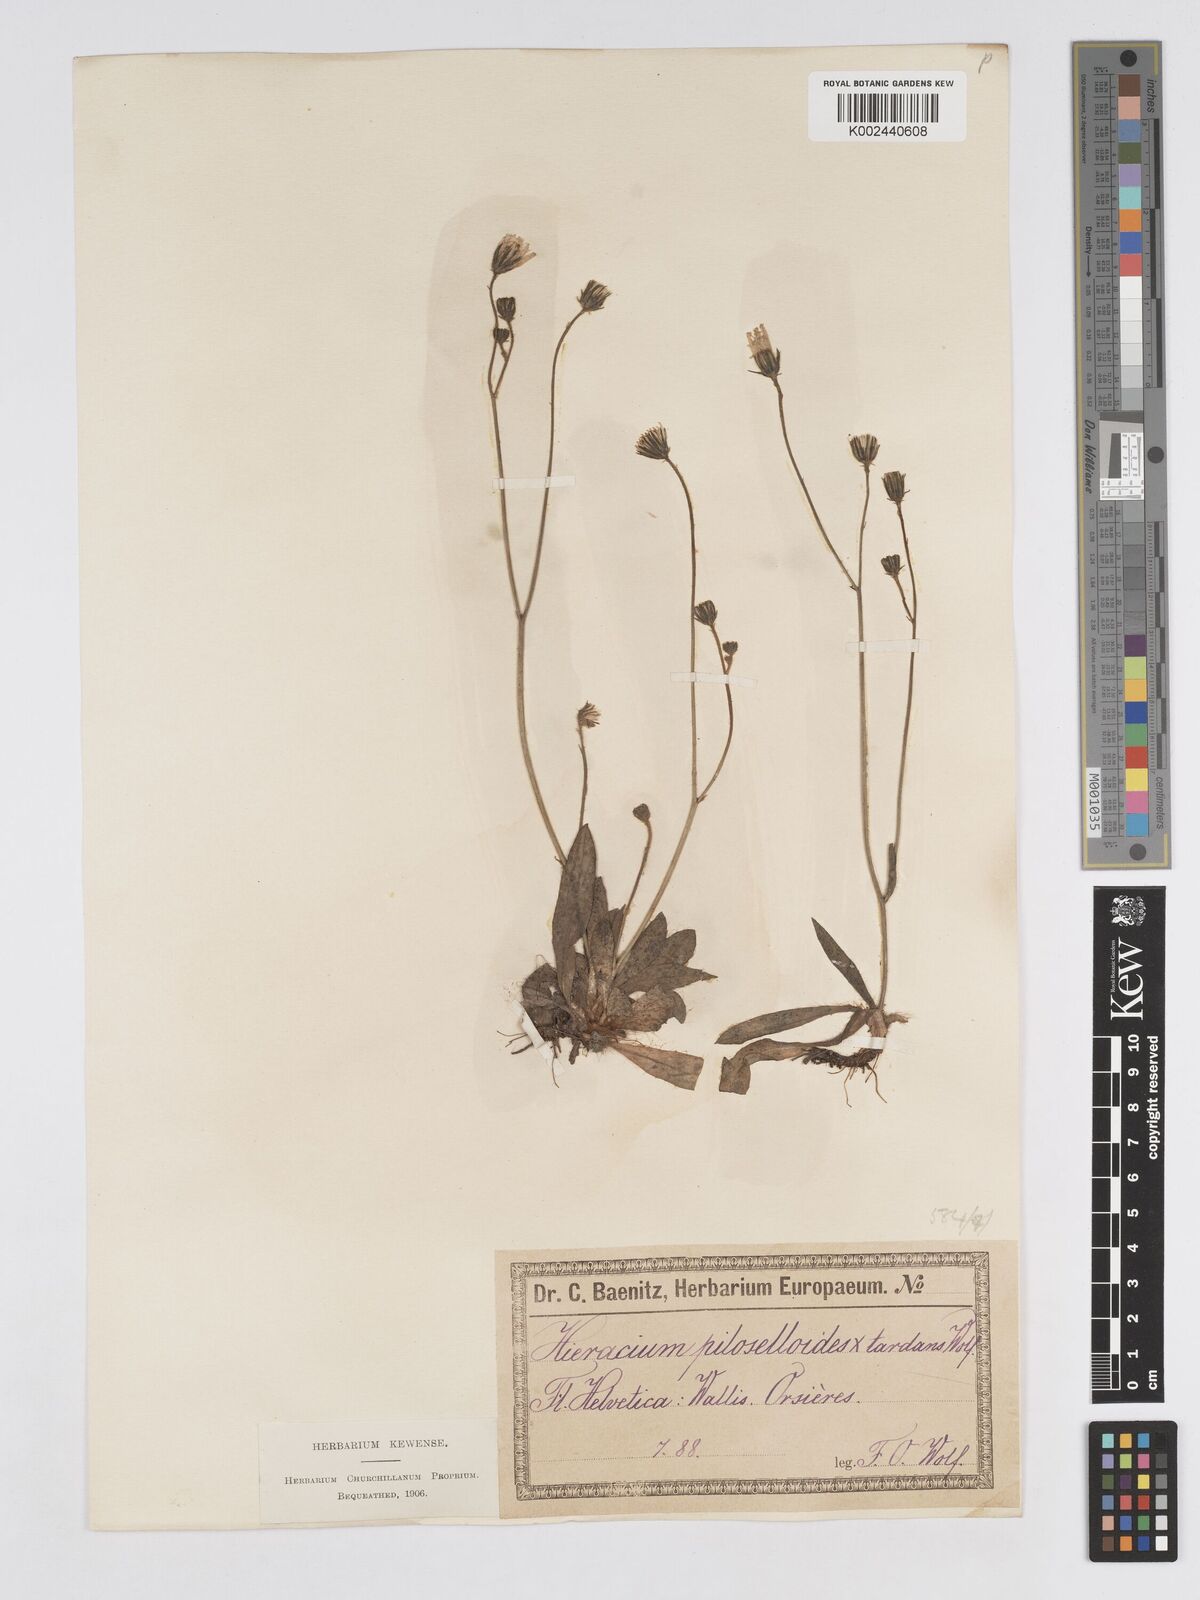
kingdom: Plantae
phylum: Tracheophyta
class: Magnoliopsida
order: Asterales
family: Asteraceae
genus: Pilosella
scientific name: Pilosella subtardans
